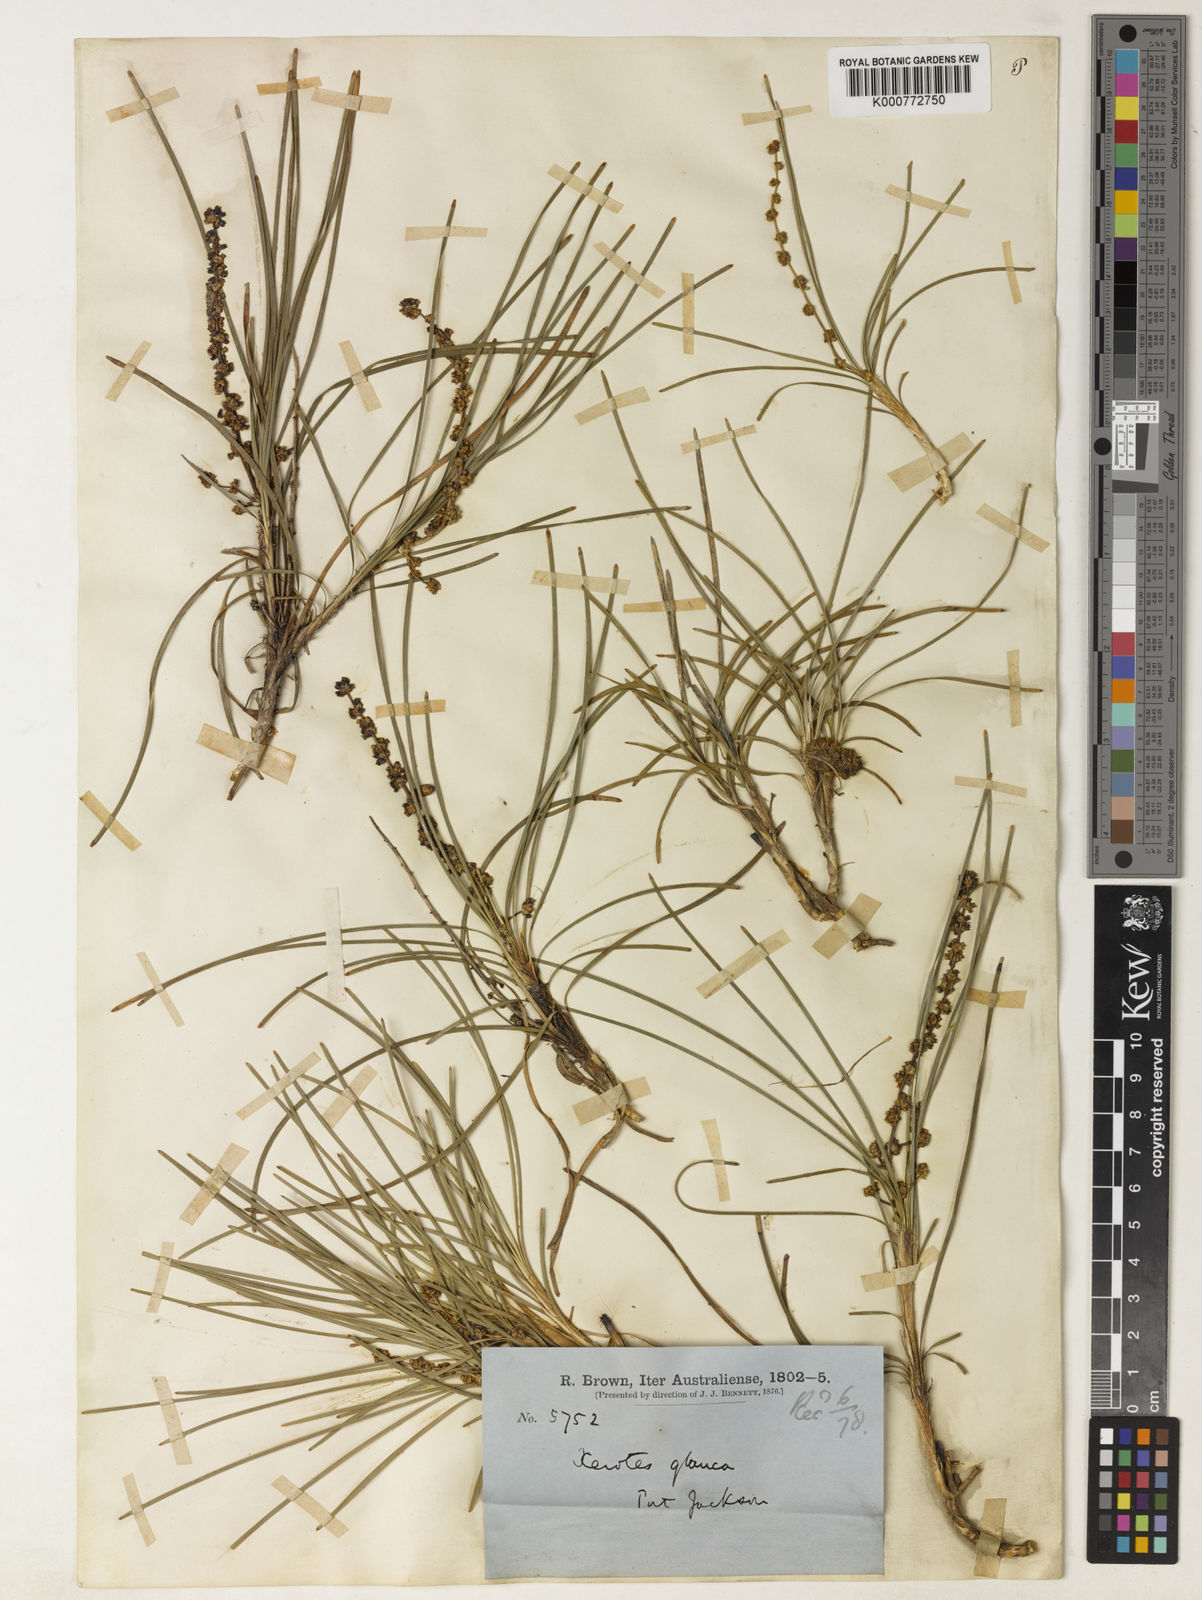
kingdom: Plantae
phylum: Tracheophyta
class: Liliopsida
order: Asparagales
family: Asparagaceae
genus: Lomandra
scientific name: Lomandra glauca
